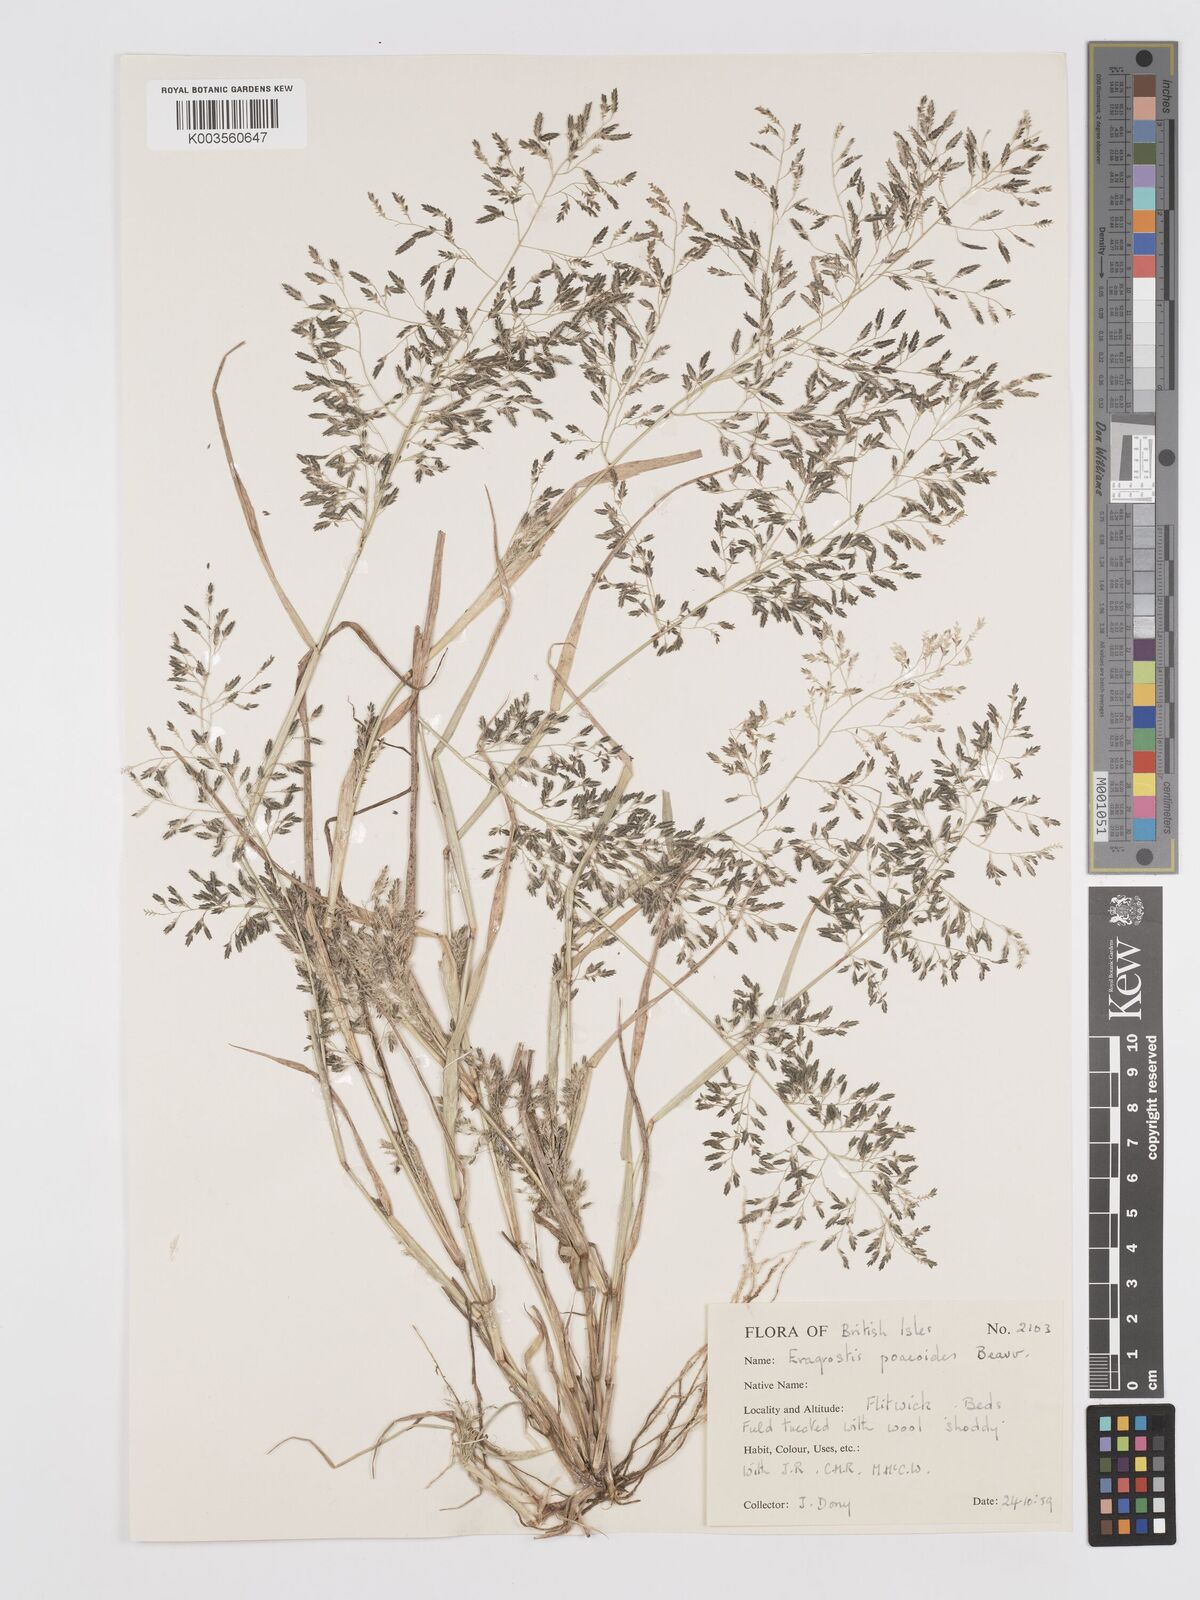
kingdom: Plantae
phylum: Tracheophyta
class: Liliopsida
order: Poales
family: Poaceae
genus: Eragrostis
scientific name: Eragrostis minor
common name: Small love-grass
